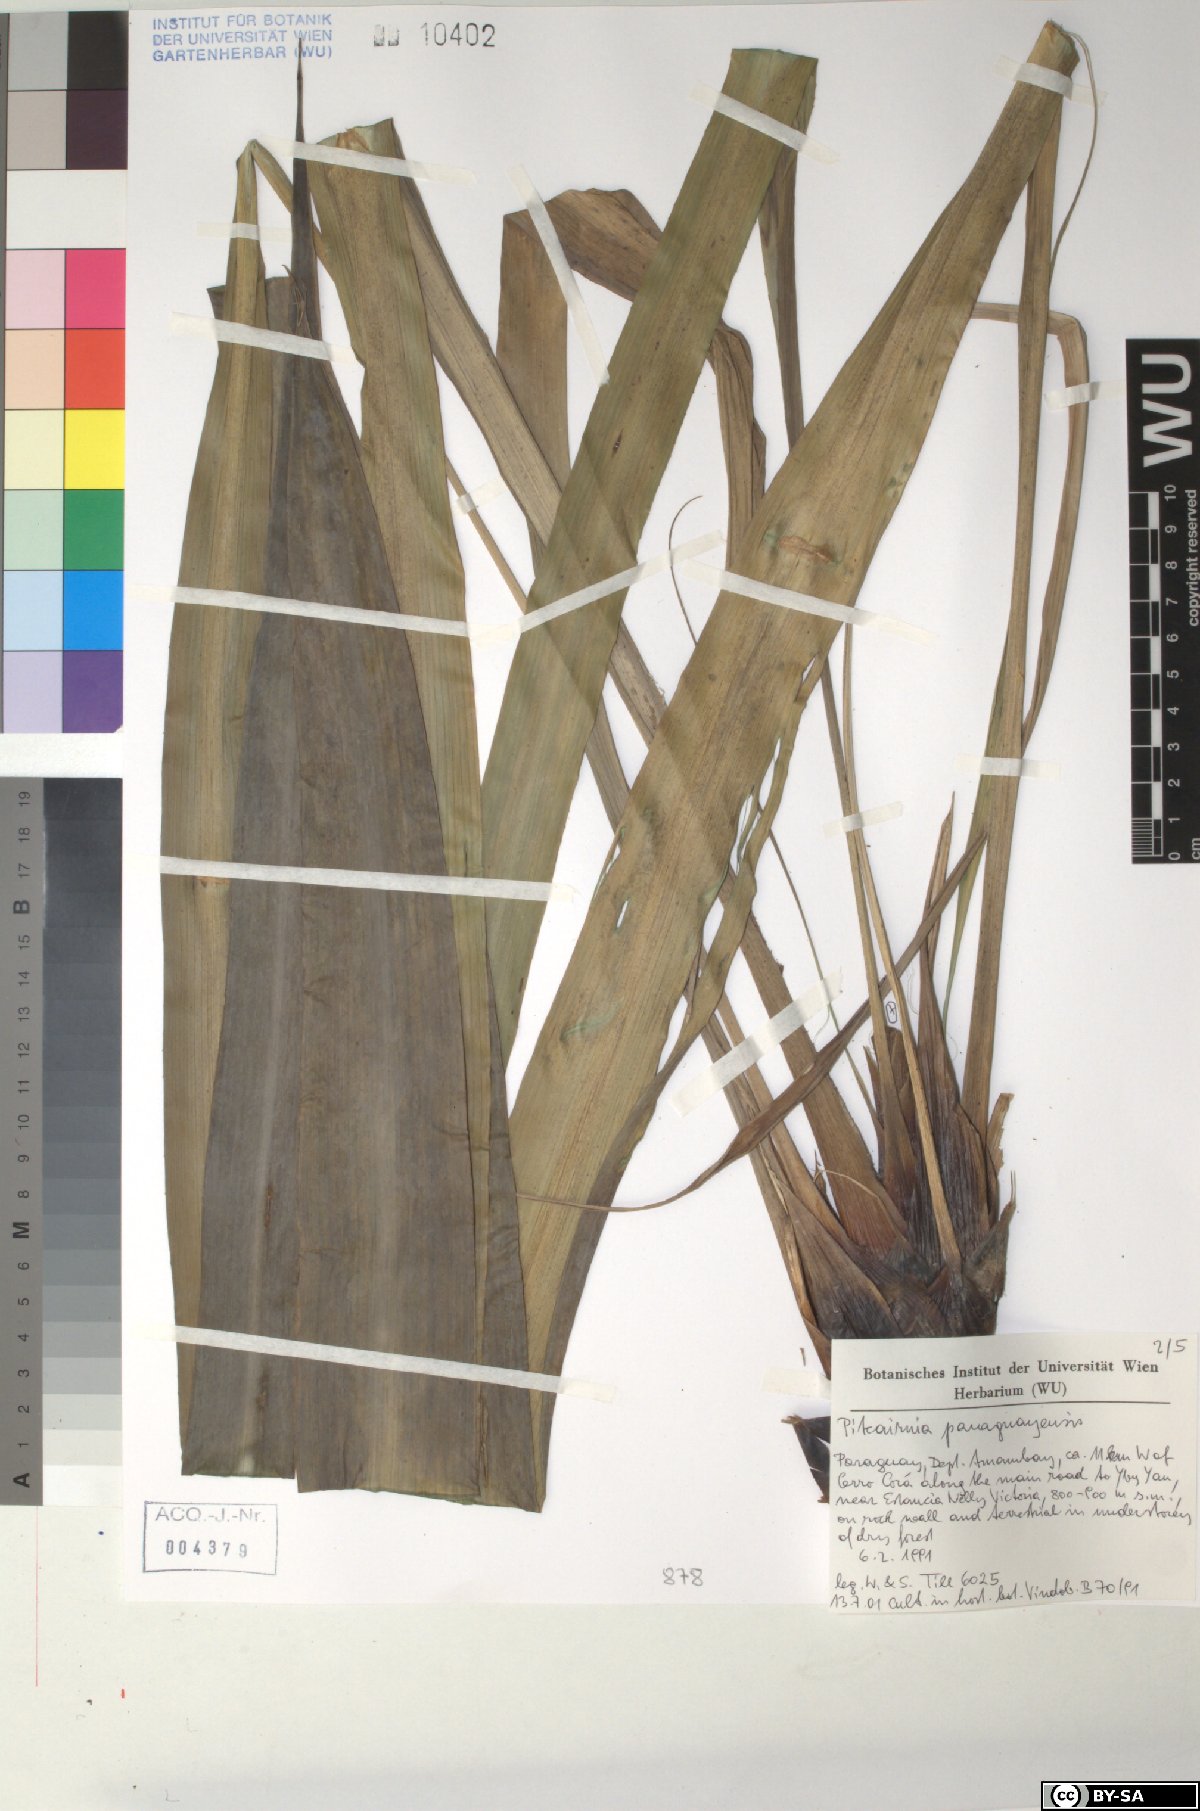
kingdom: Plantae
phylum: Tracheophyta
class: Liliopsida
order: Poales
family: Bromeliaceae
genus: Pitcairnia
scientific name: Pitcairnia paraguayensis
